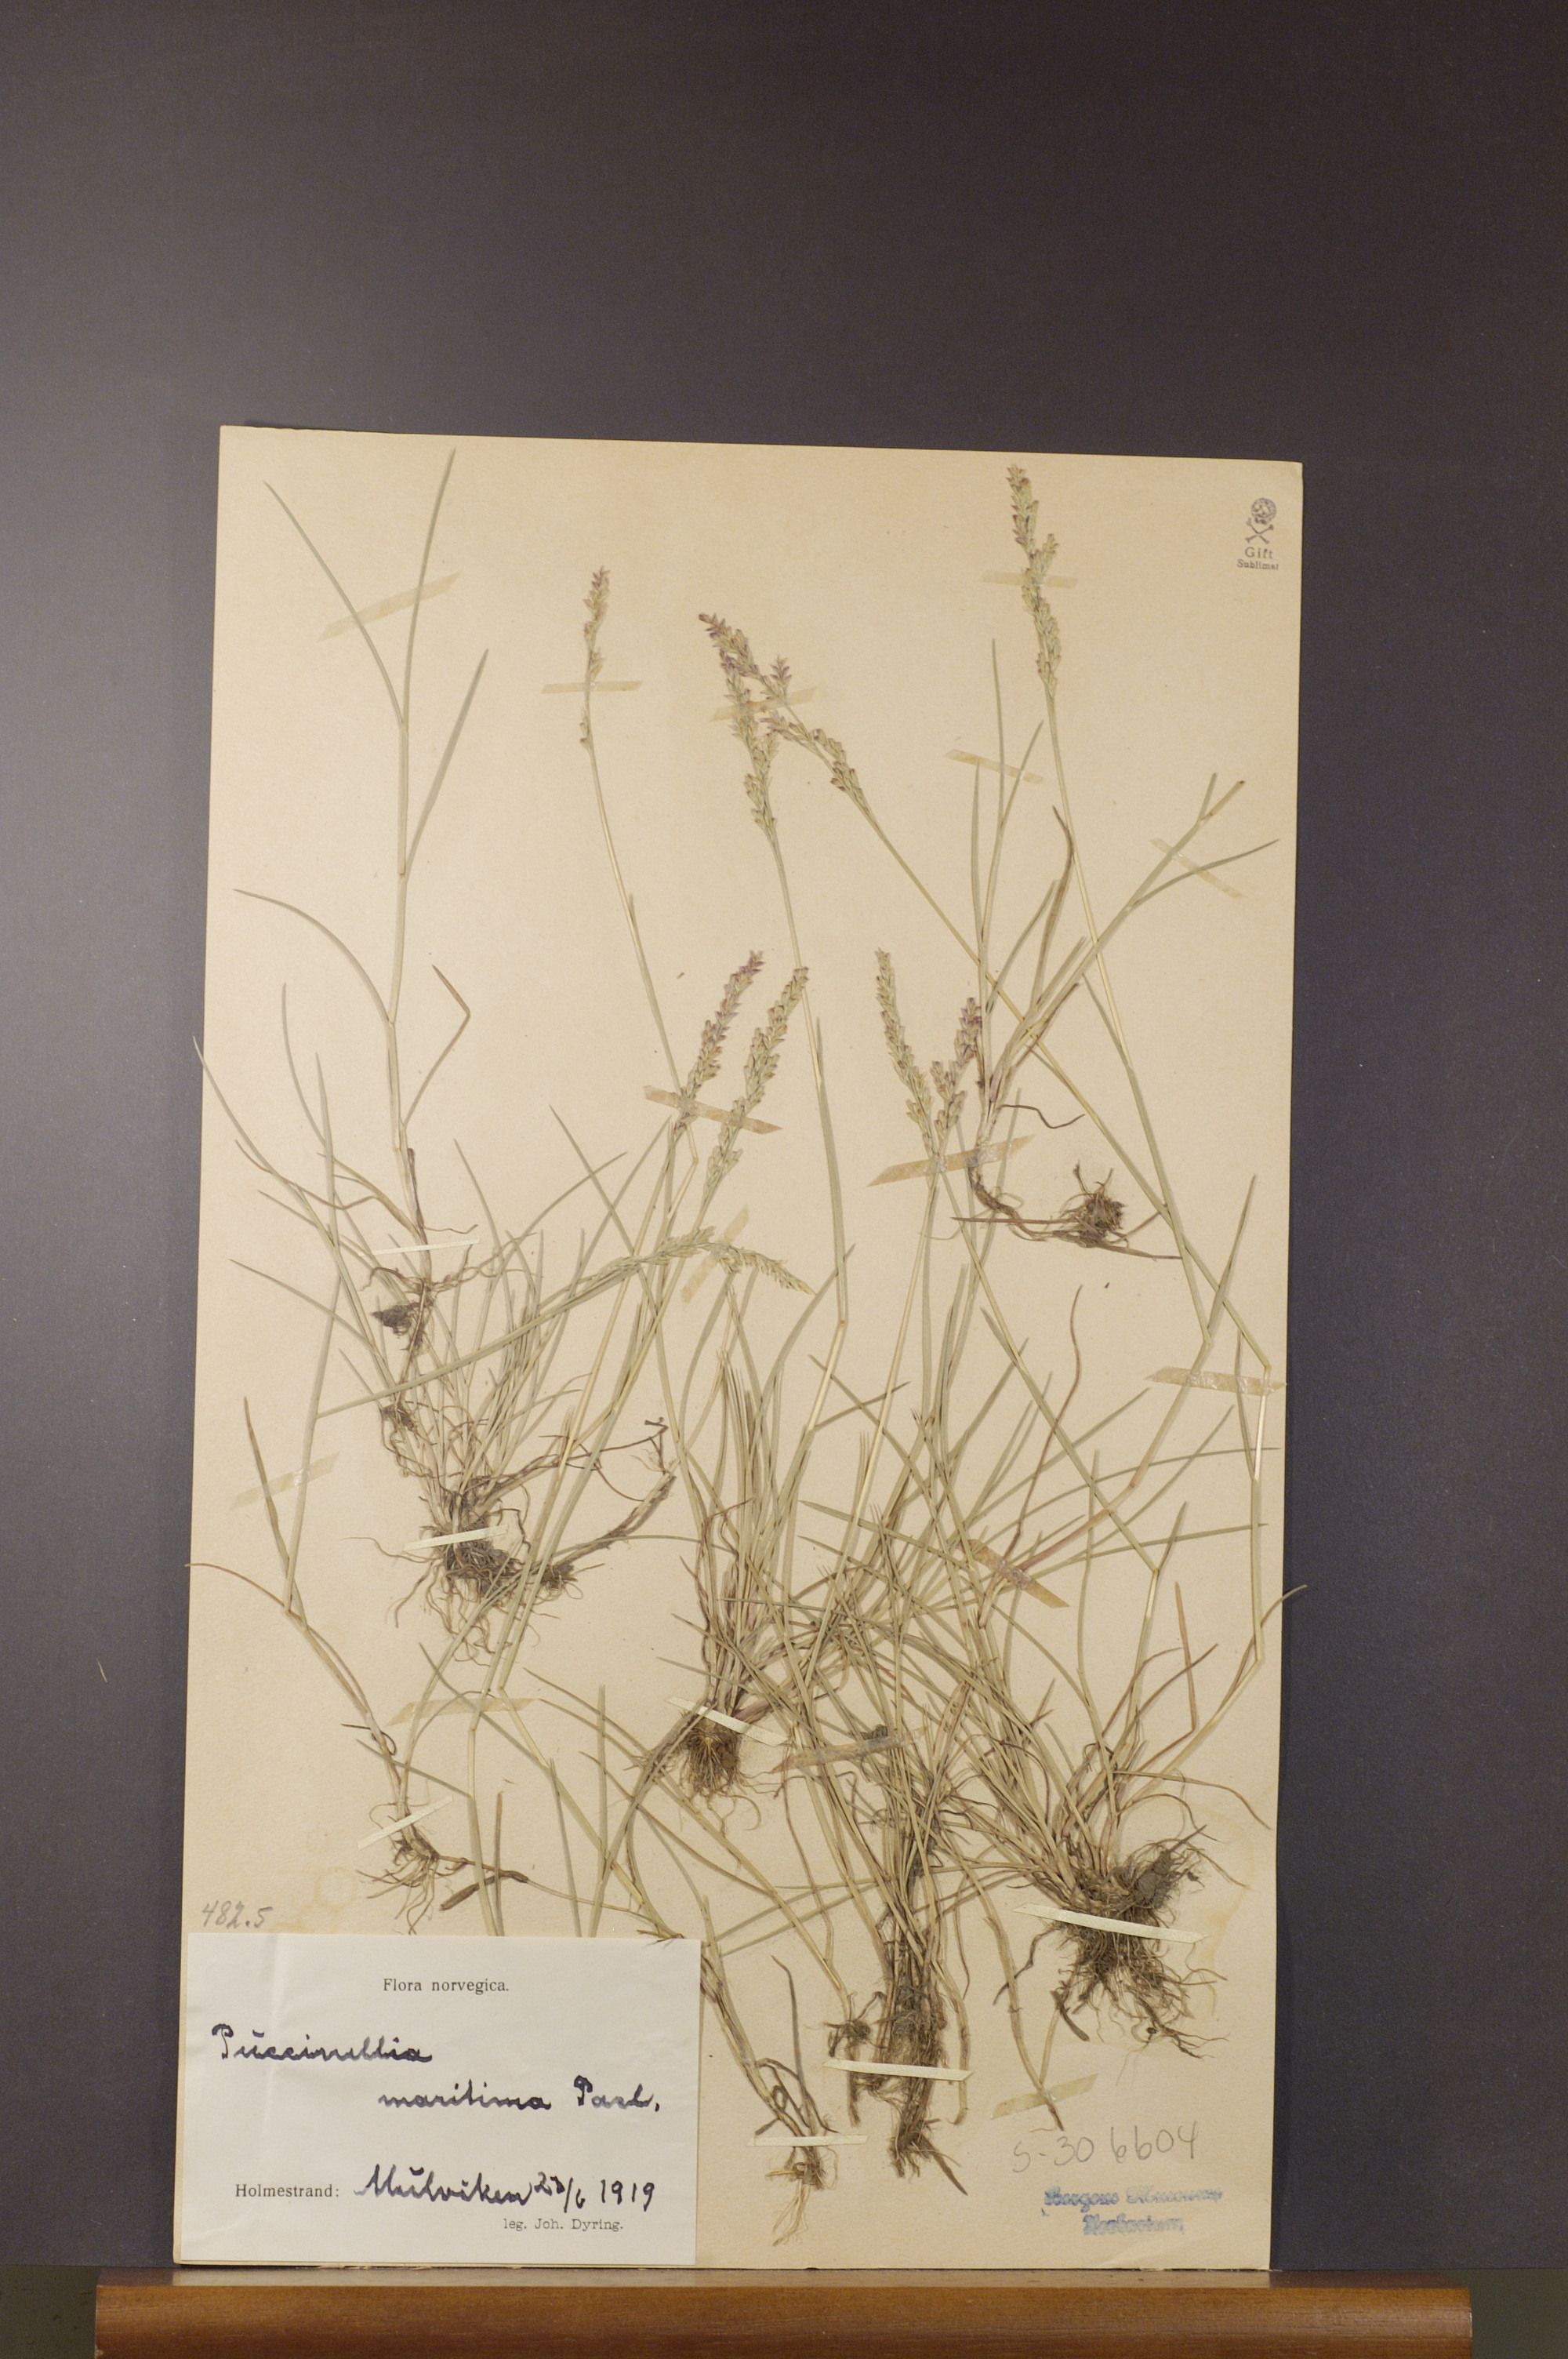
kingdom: Plantae
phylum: Tracheophyta
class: Liliopsida
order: Poales
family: Poaceae
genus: Puccinellia
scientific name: Puccinellia maritima
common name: Common saltmarsh grass
